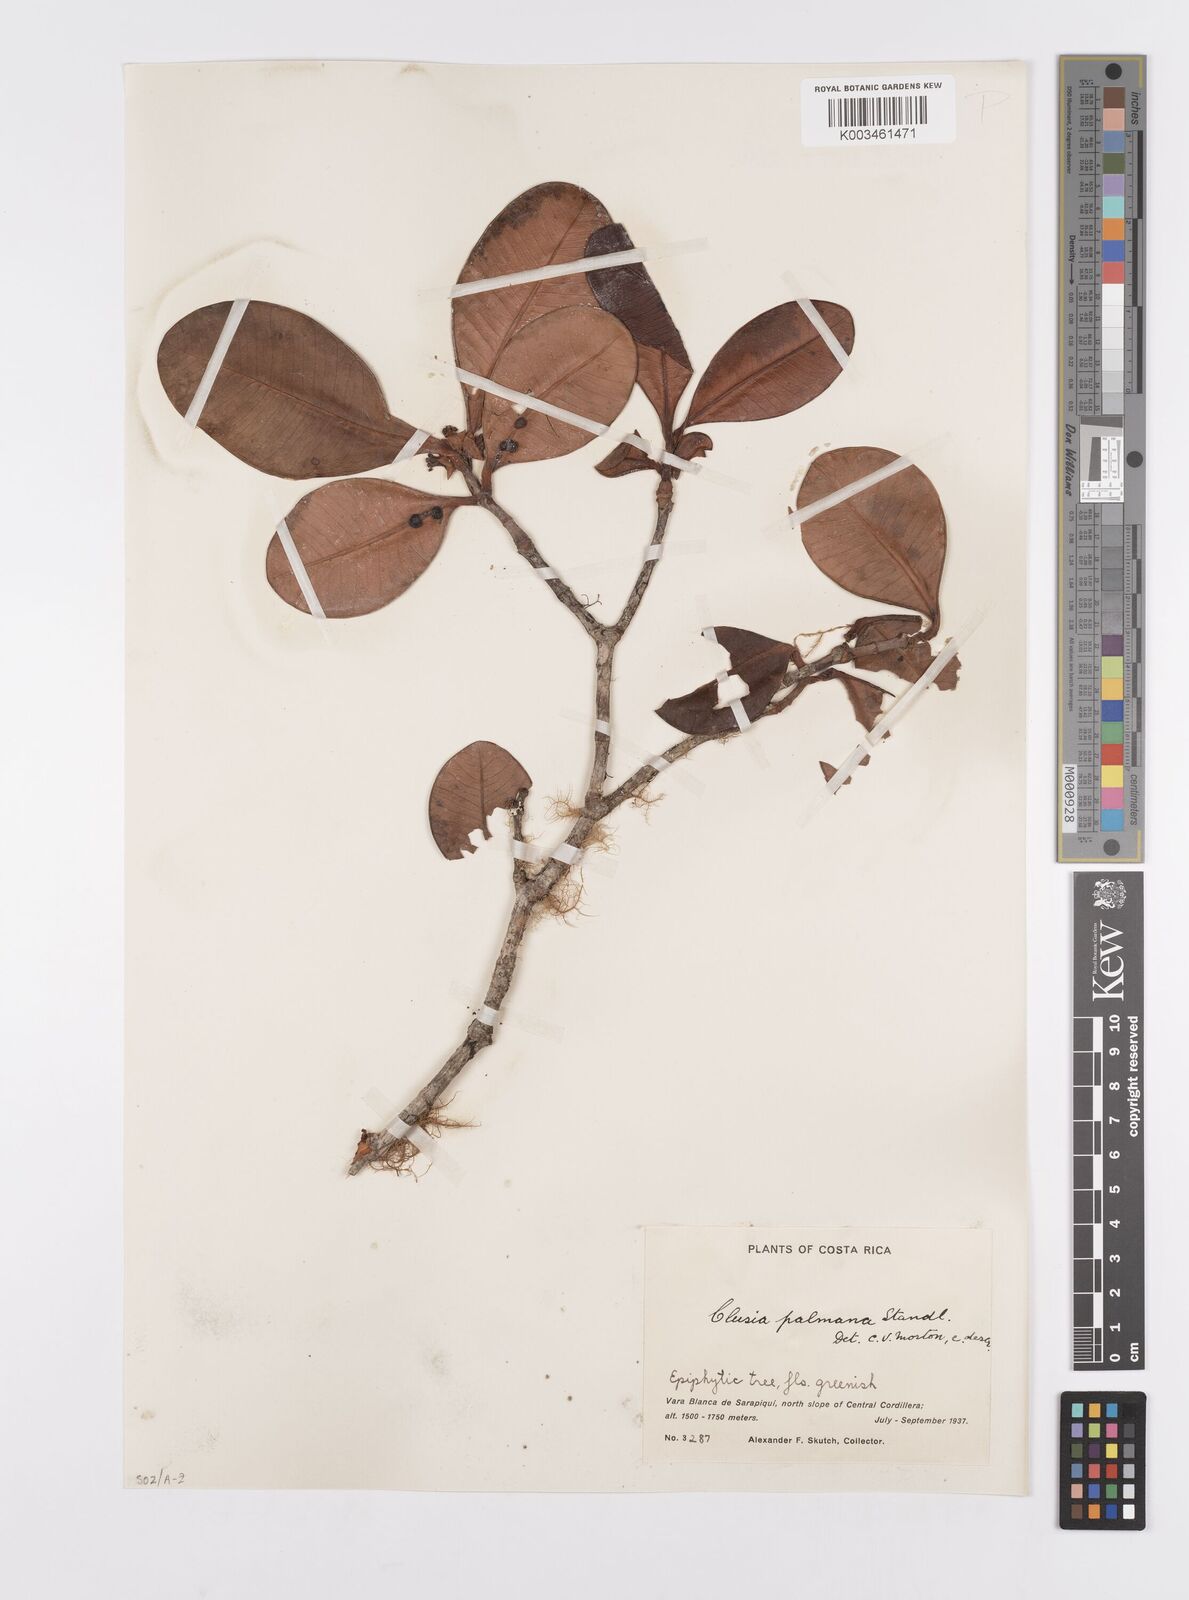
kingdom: Plantae
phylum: Tracheophyta
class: Magnoliopsida
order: Malpighiales
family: Clusiaceae
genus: Clusia
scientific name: Clusia palmana
